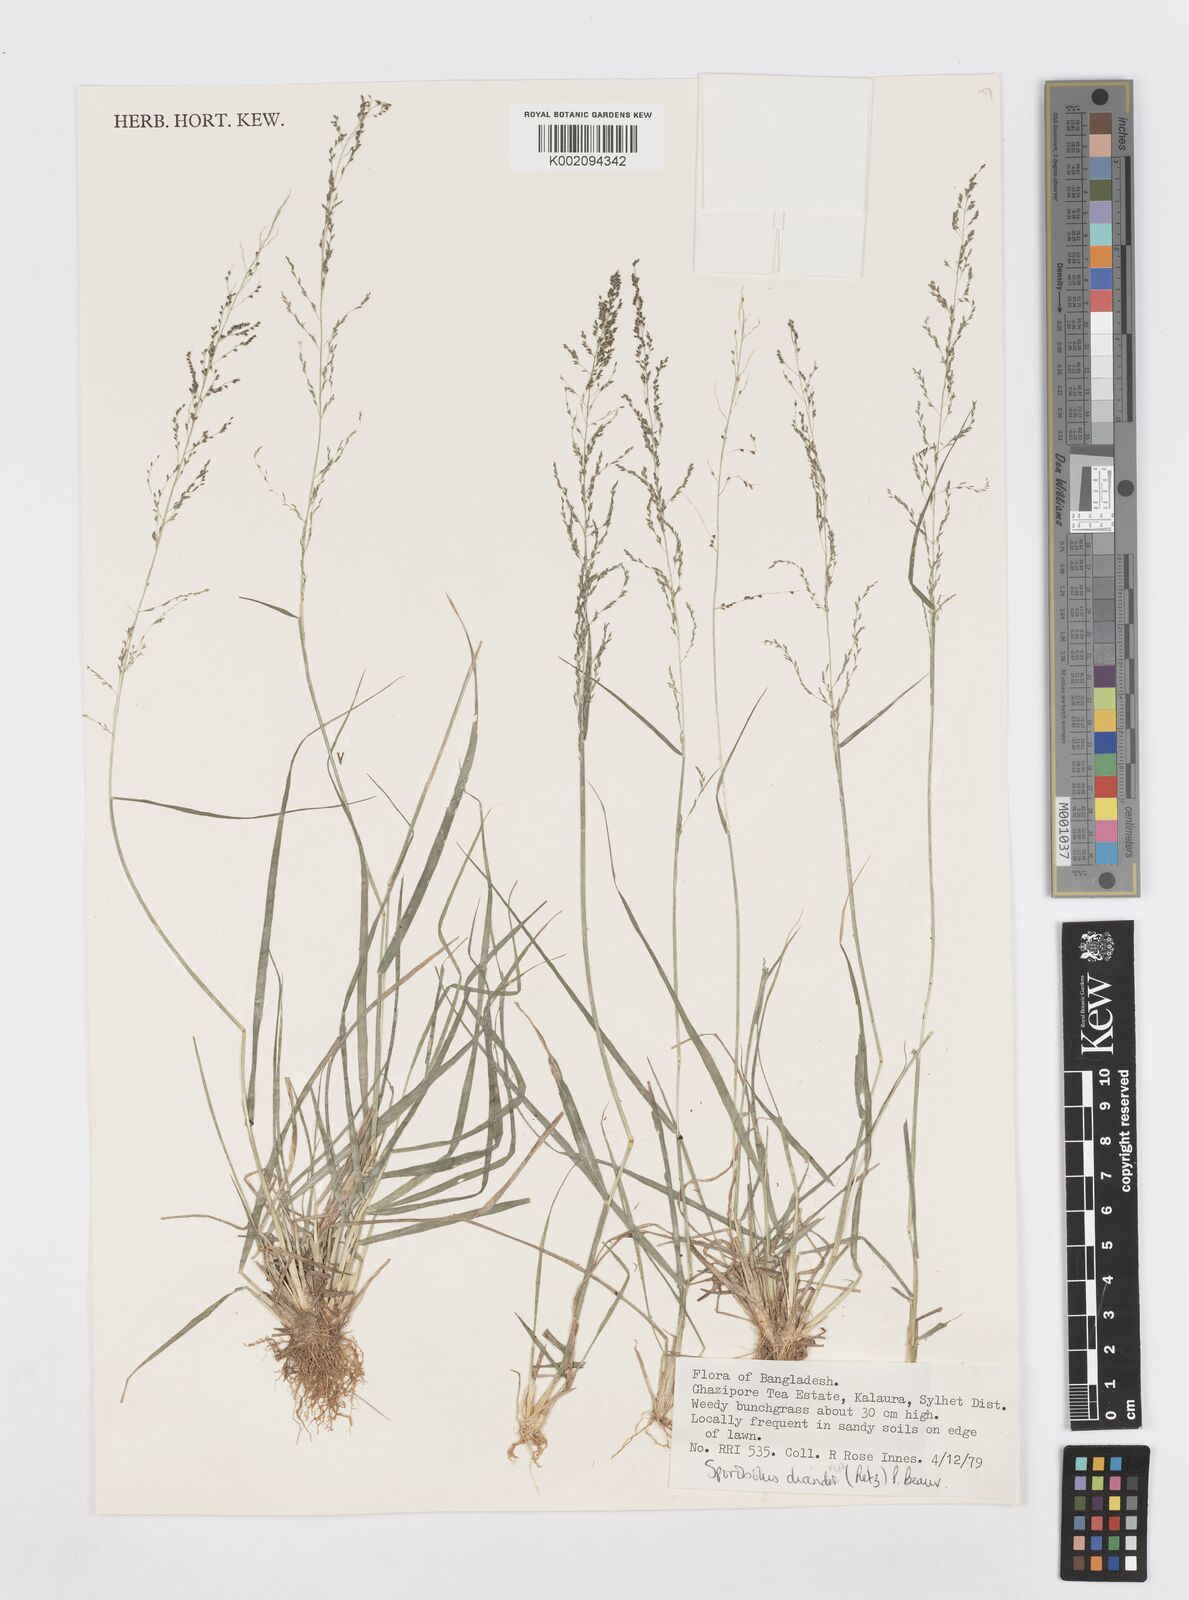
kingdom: Plantae
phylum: Tracheophyta
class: Liliopsida
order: Poales
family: Poaceae
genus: Sporobolus
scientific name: Sporobolus diandrus
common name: Tussock dropseed
